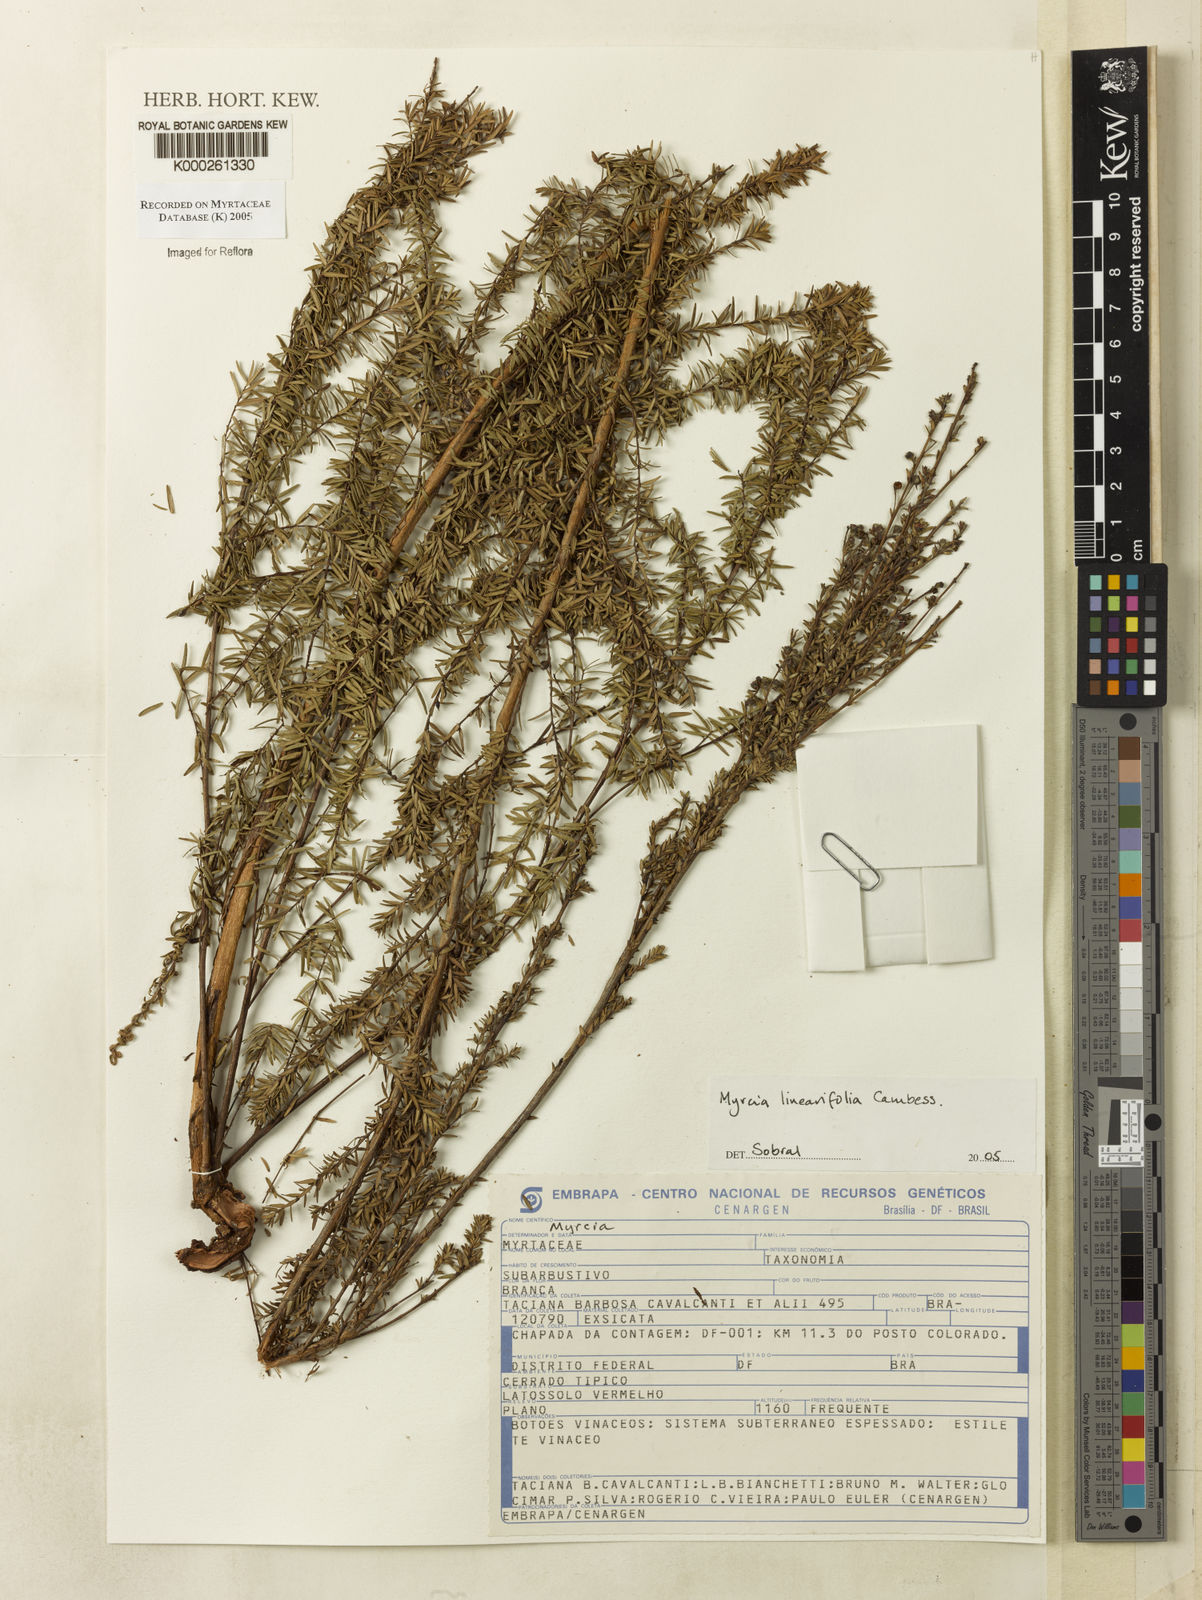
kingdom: Plantae
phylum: Tracheophyta
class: Magnoliopsida
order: Myrtales
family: Myrtaceae
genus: Myrcia
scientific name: Myrcia linearifolia
